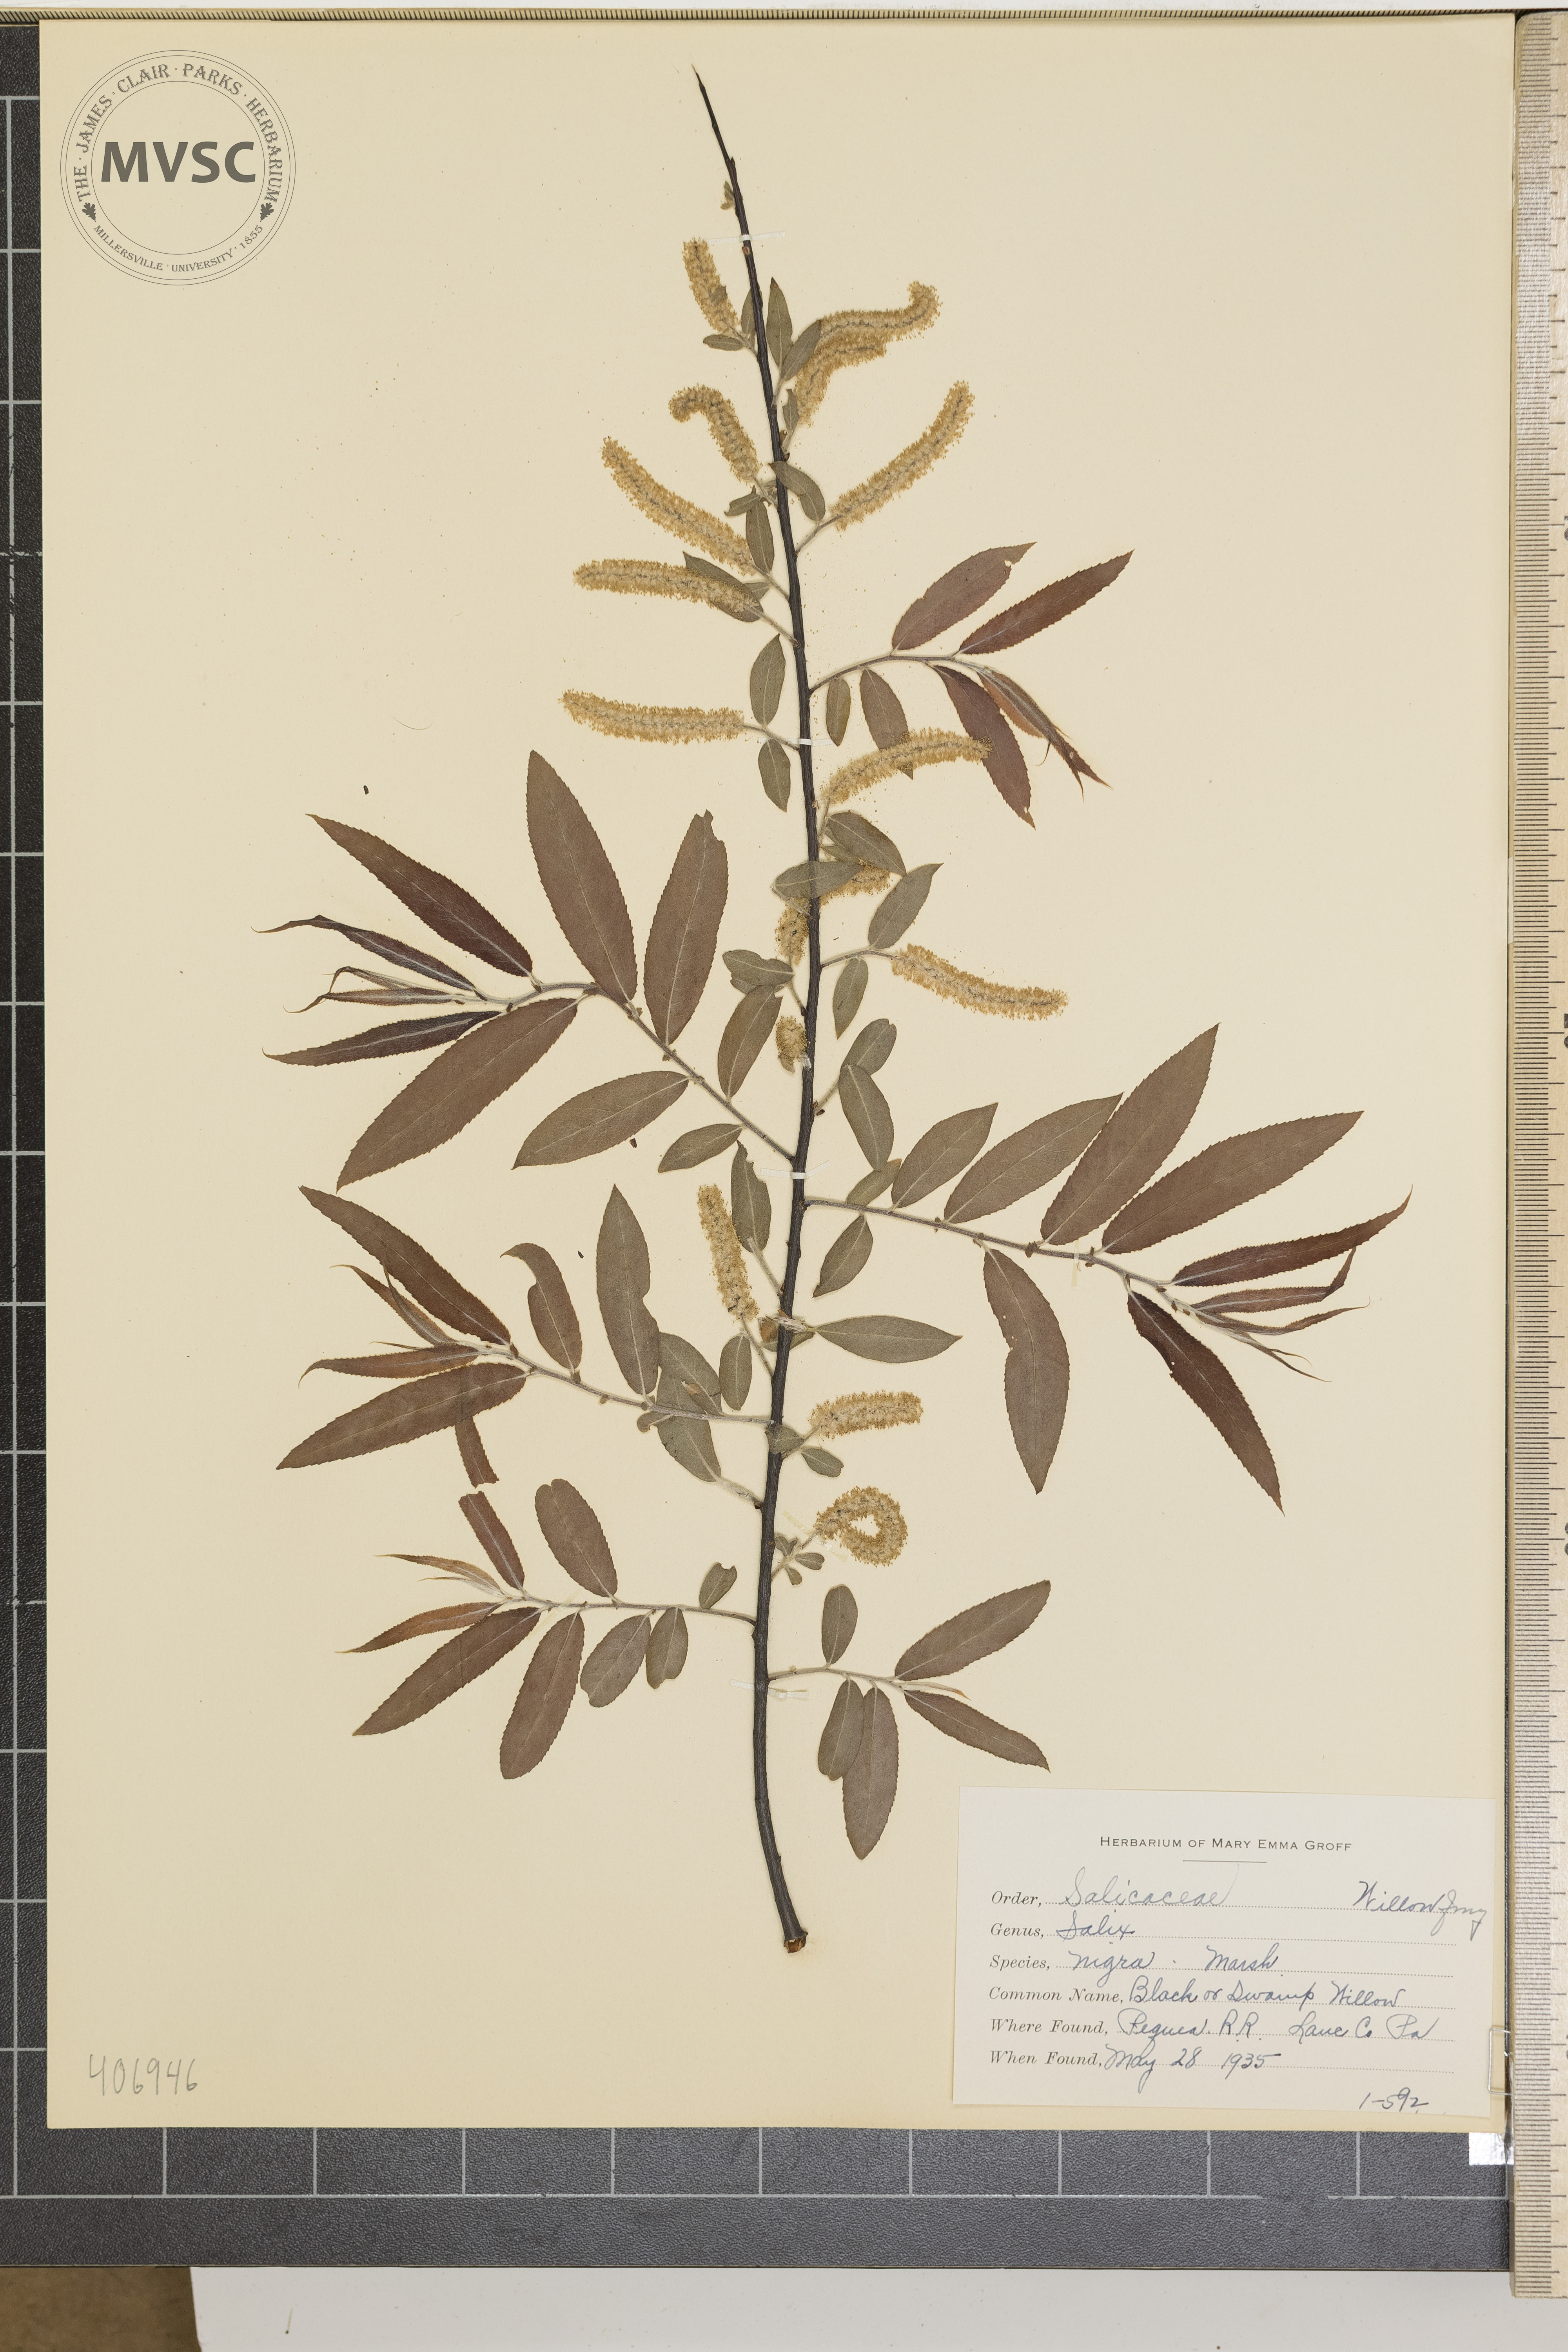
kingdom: Plantae
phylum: Tracheophyta
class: Magnoliopsida
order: Malpighiales
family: Salicaceae
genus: Salix
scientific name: Salix nigra
